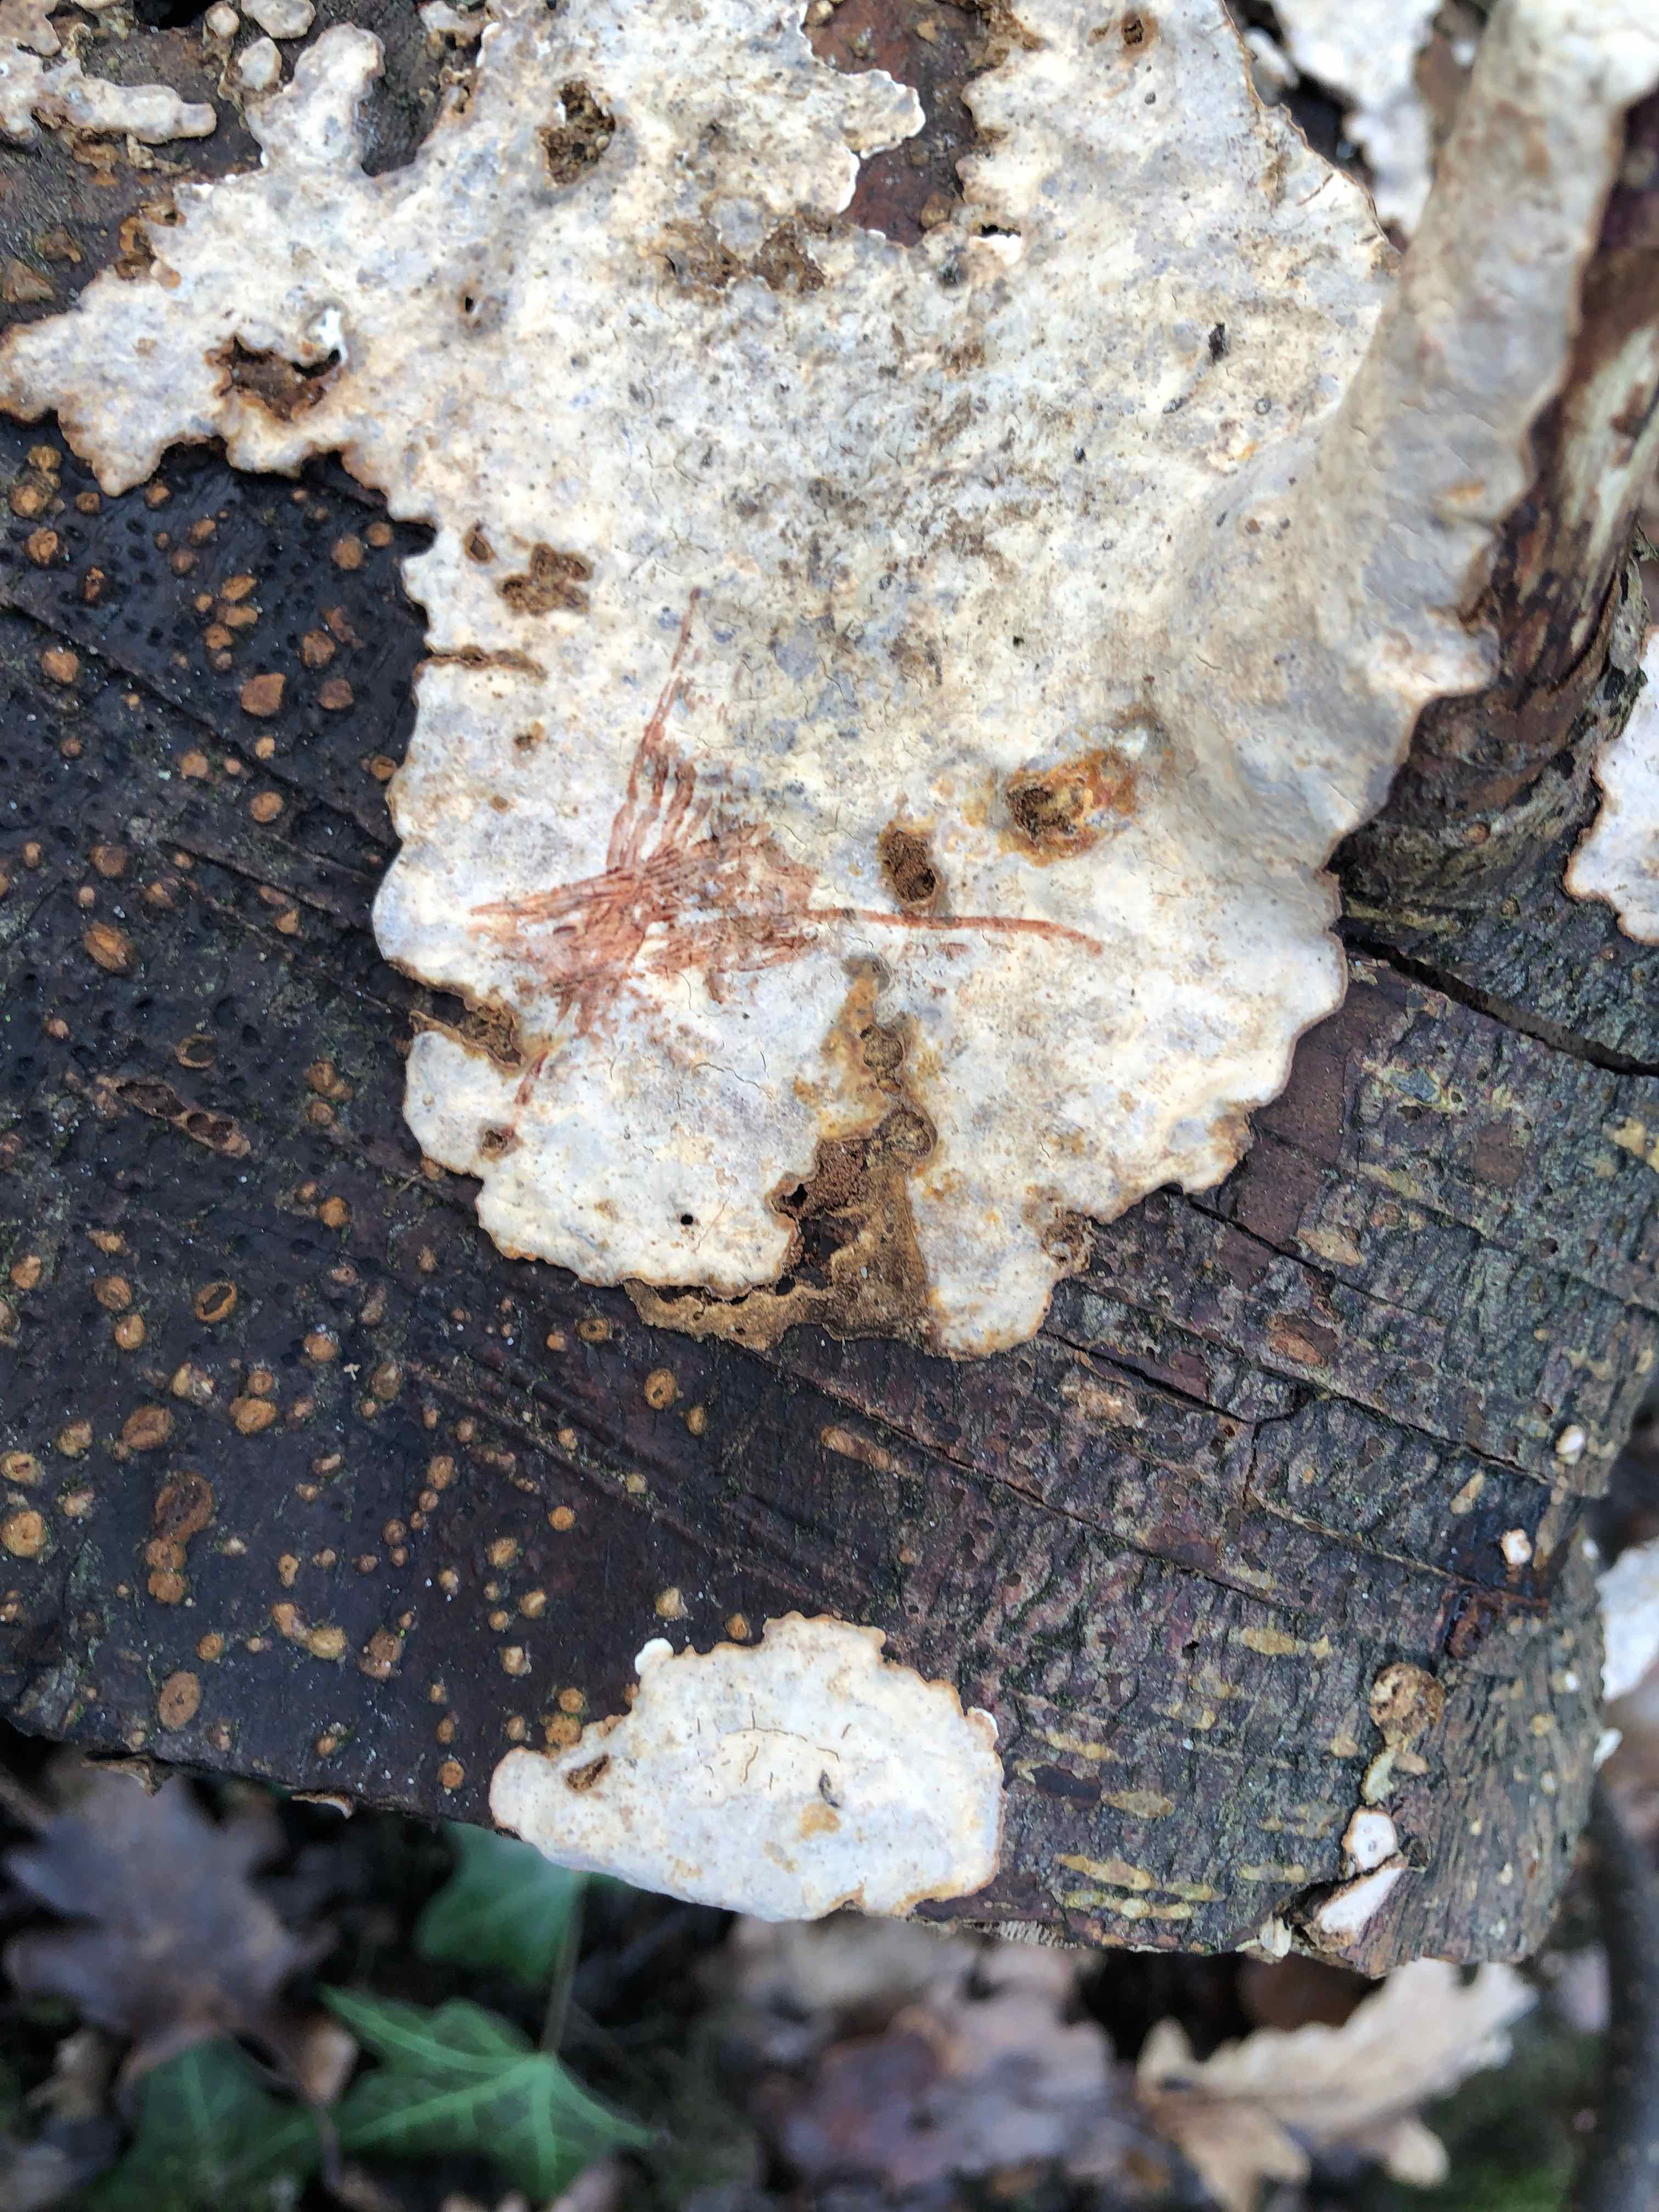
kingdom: Fungi
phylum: Basidiomycota
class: Agaricomycetes
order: Russulales
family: Stereaceae
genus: Stereum
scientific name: Stereum rugosum
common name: rynket lædersvamp
